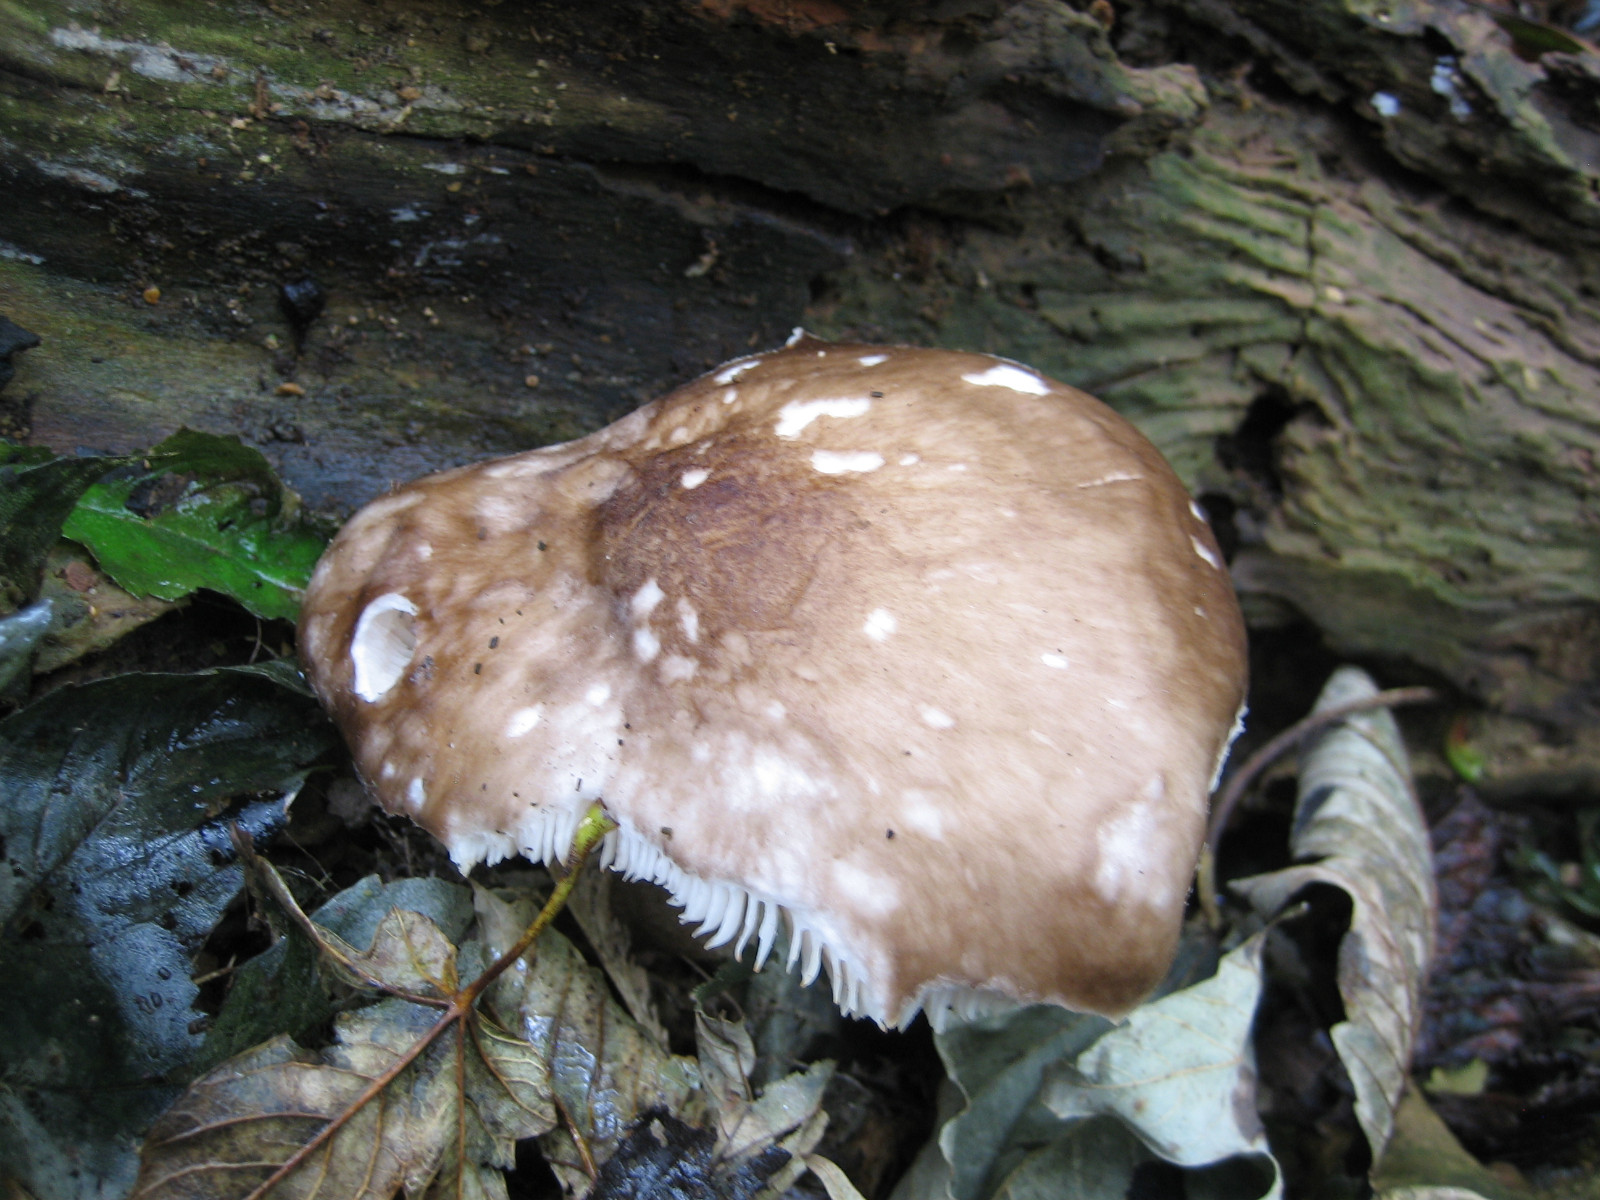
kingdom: Fungi
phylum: Basidiomycota
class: Agaricomycetes
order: Agaricales
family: Pluteaceae
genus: Pluteus
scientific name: Pluteus cervinus
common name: sodfarvet skærmhat
